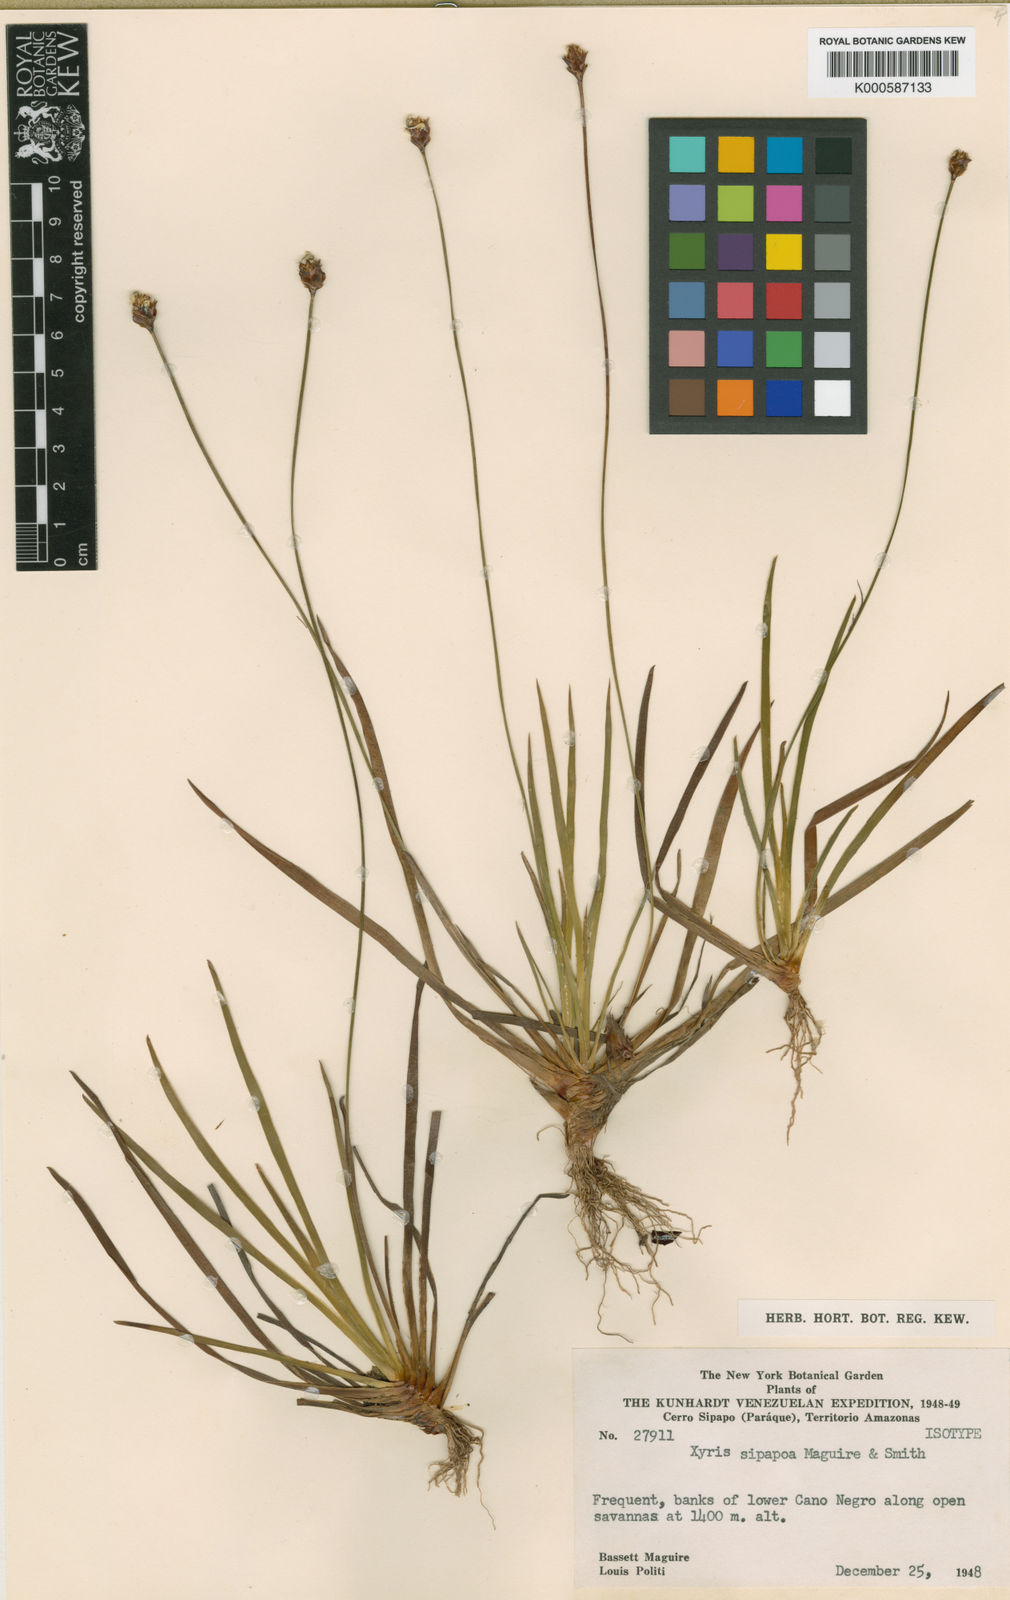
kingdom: Plantae
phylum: Tracheophyta
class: Liliopsida
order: Poales
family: Xyridaceae
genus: Xyris
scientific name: Xyris thysanolepis
